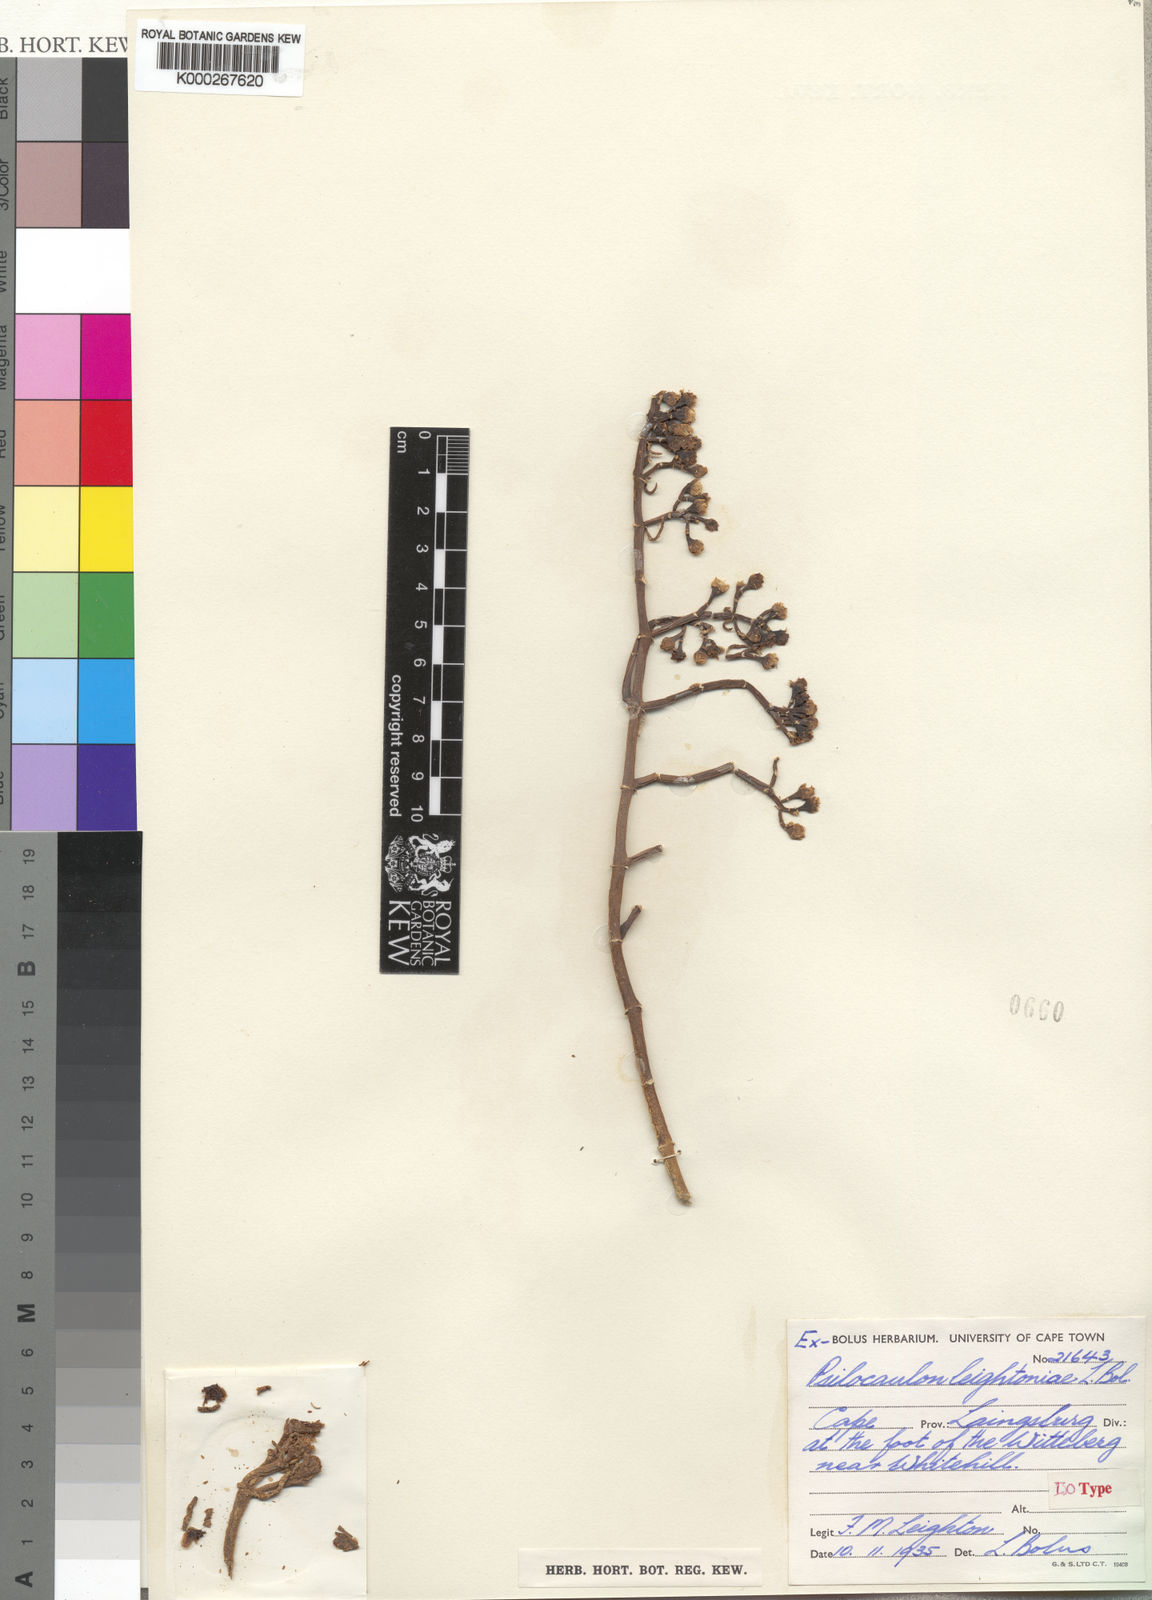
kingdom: Plantae
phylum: Tracheophyta
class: Magnoliopsida
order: Caryophyllales
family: Aizoaceae
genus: Mesembryanthemum
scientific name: Mesembryanthemum junceum
